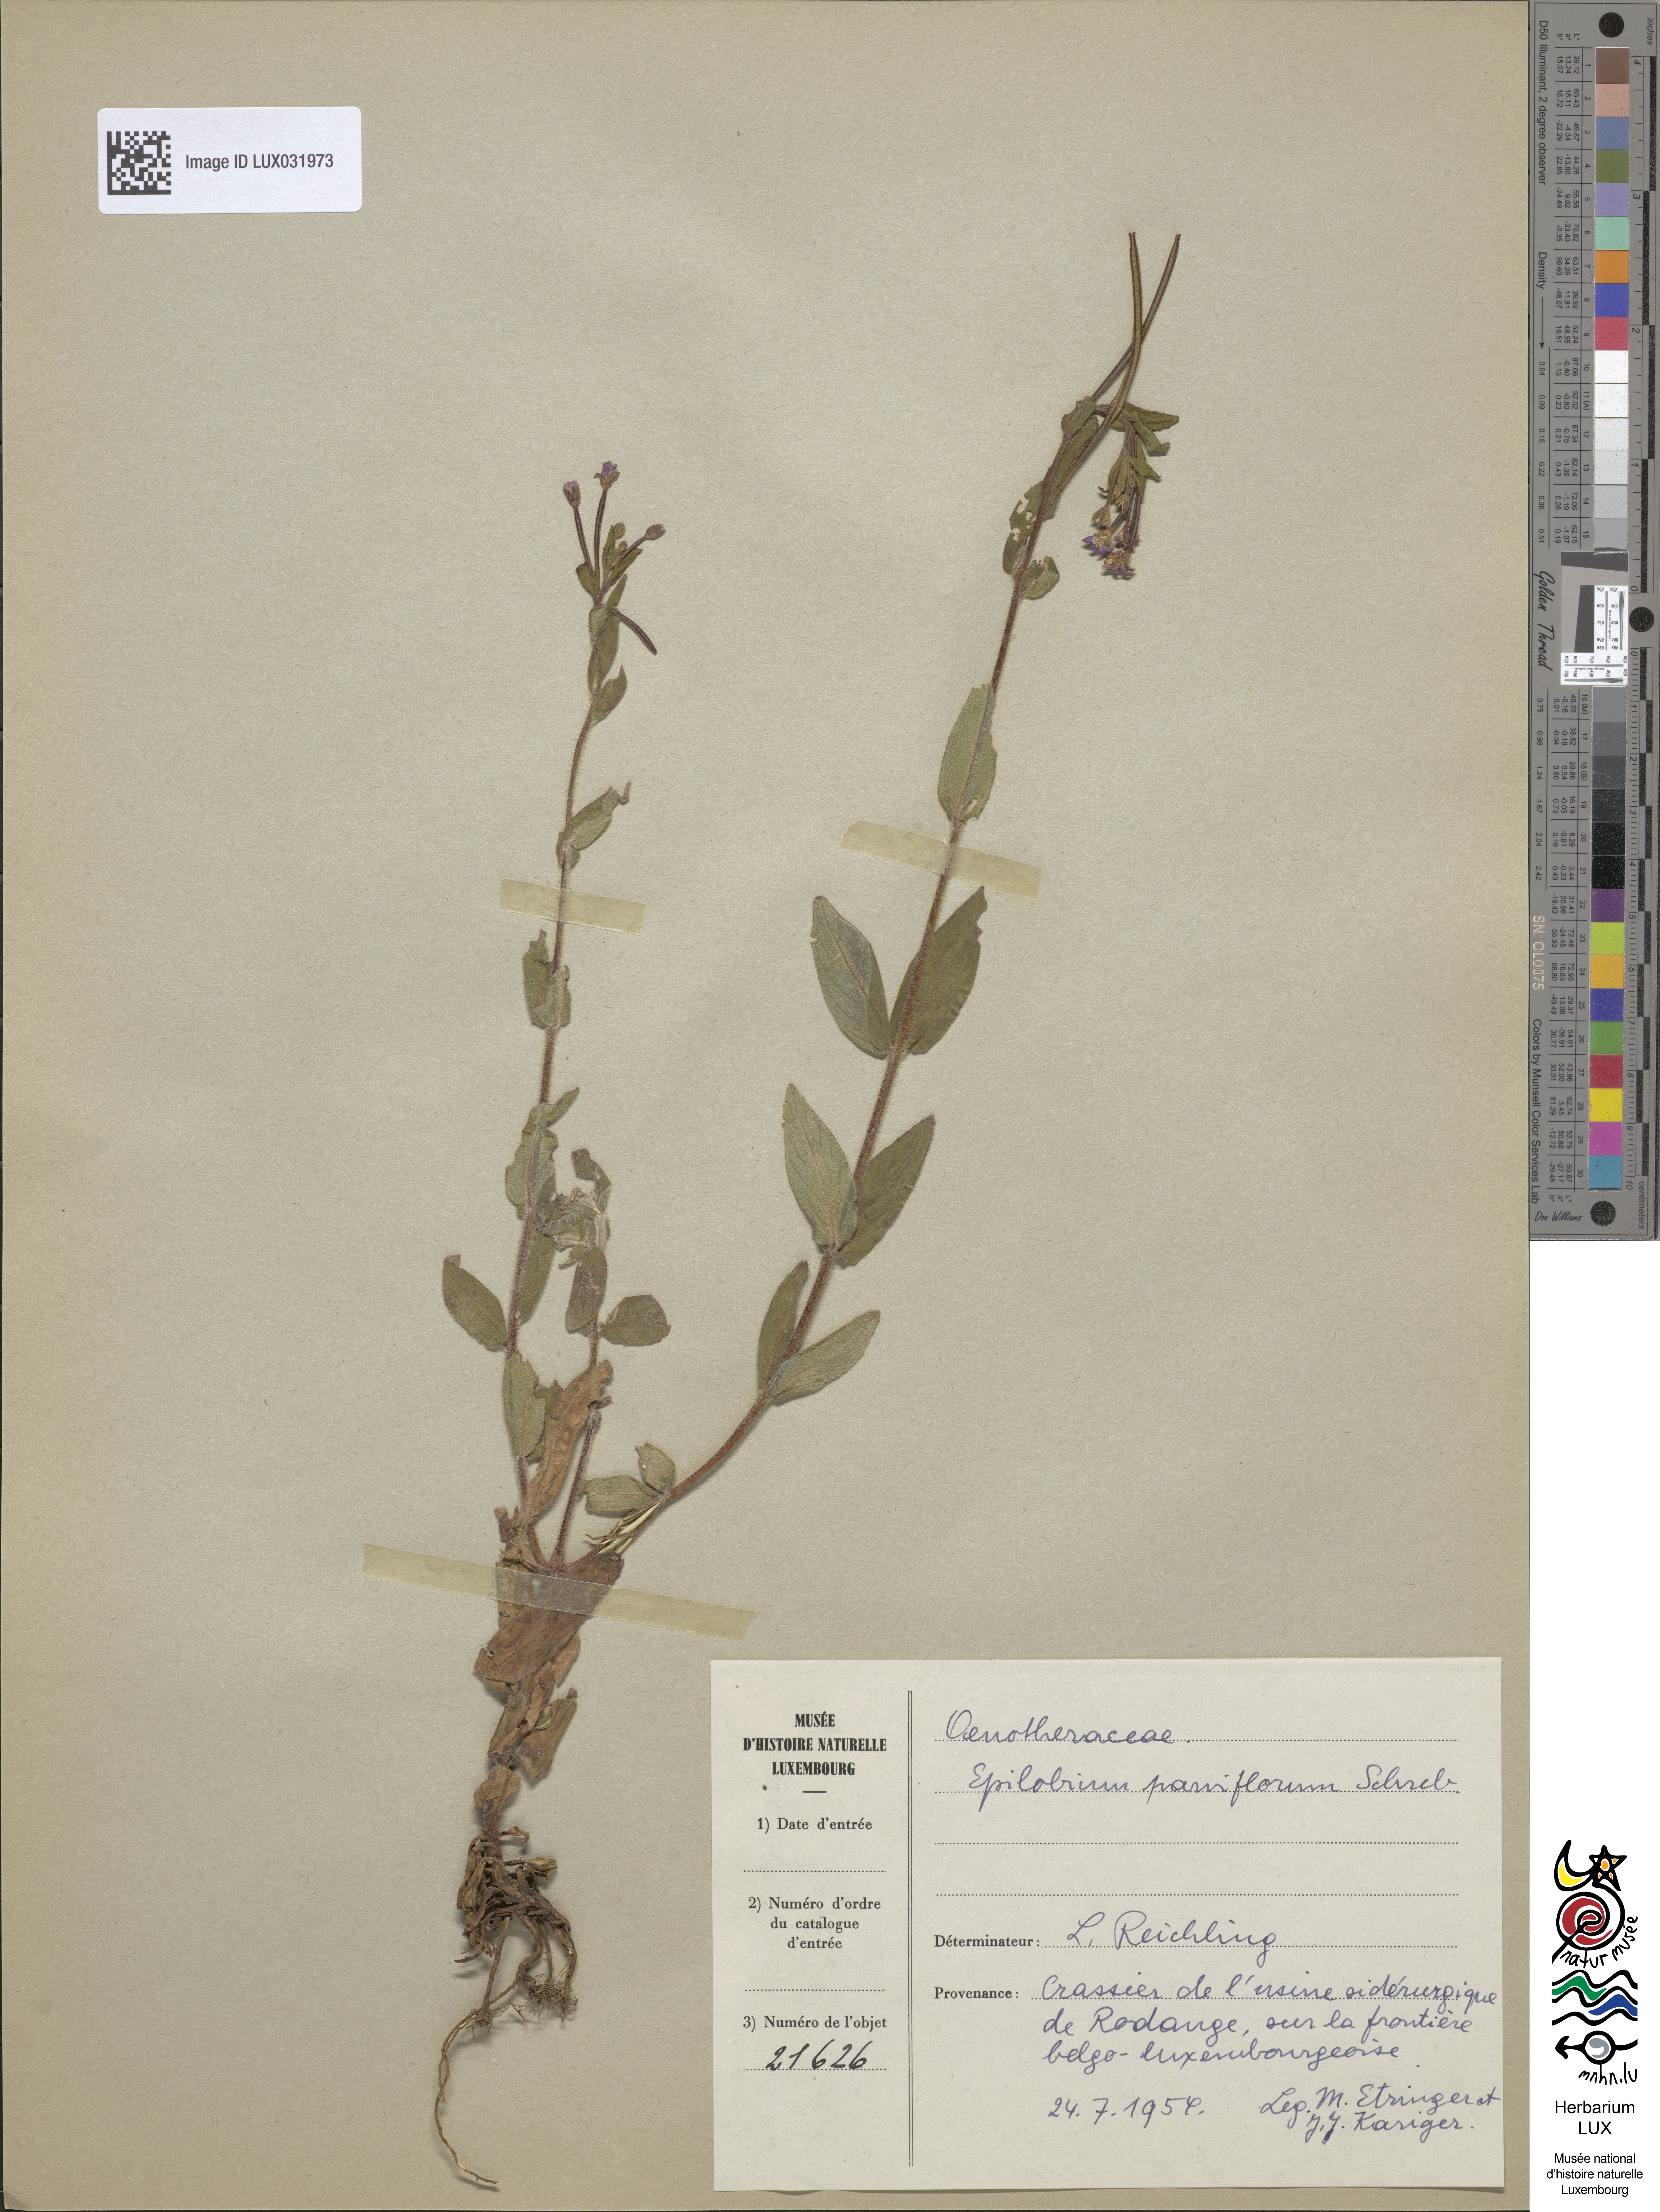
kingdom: Plantae
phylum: Tracheophyta
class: Magnoliopsida
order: Myrtales
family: Onagraceae
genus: Epilobium
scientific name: Epilobium parviflorum
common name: Hoary willowherb
